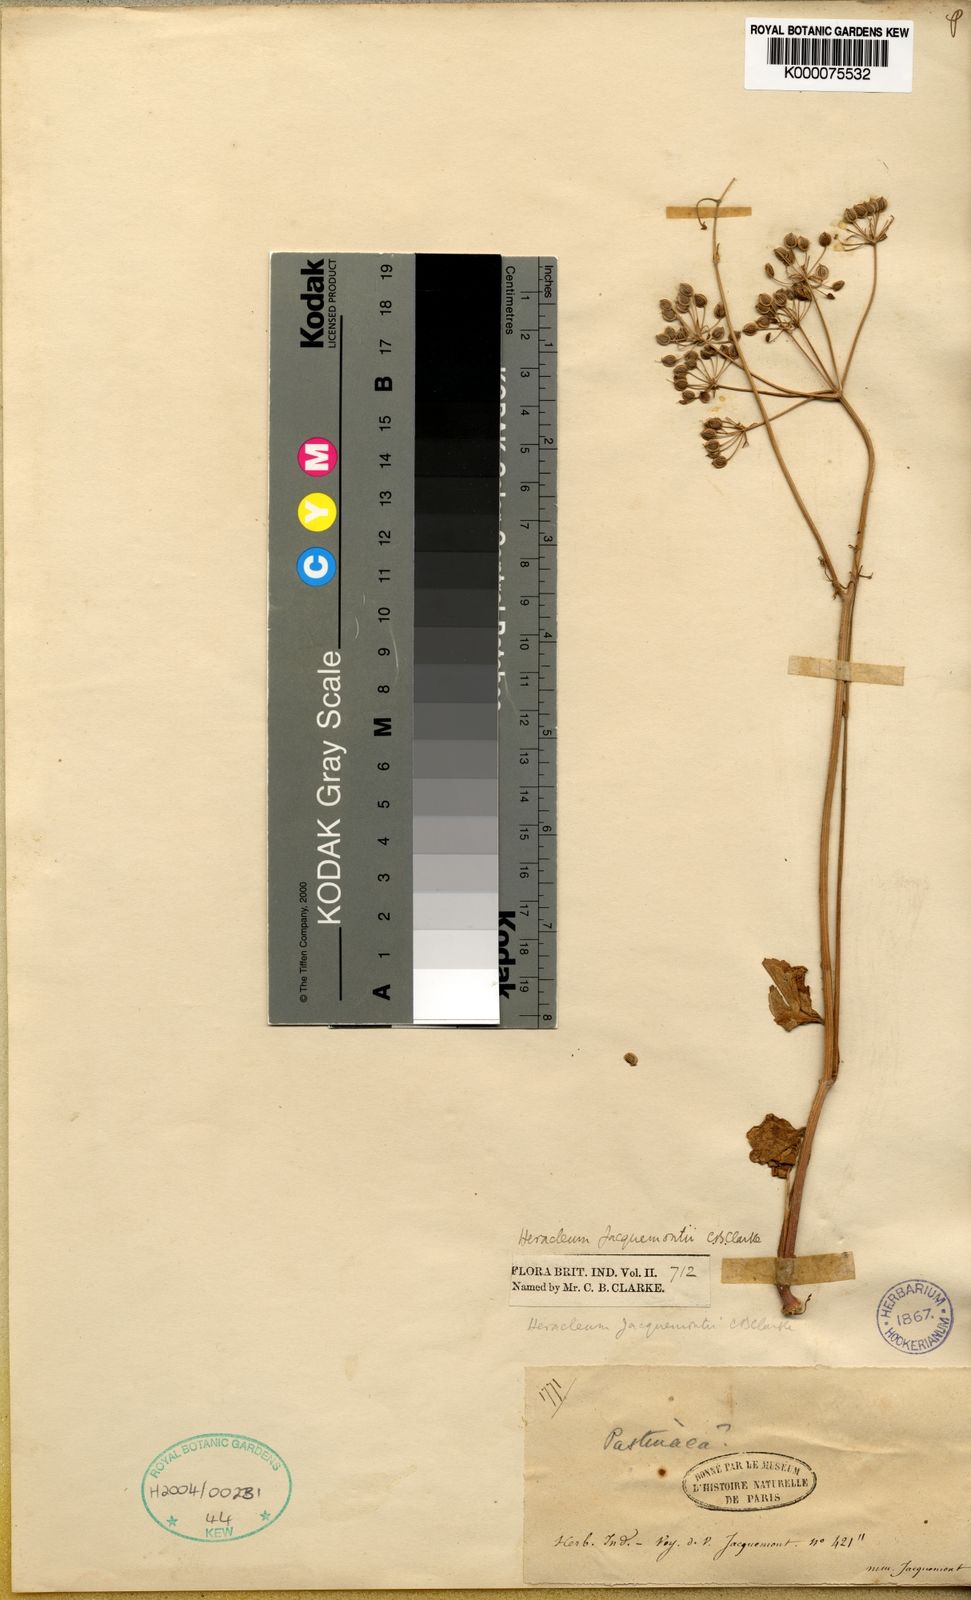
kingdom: Plantae
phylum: Tracheophyta
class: Magnoliopsida
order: Apiales
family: Apiaceae
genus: Heracleum
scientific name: Heracleum jacquemontii
